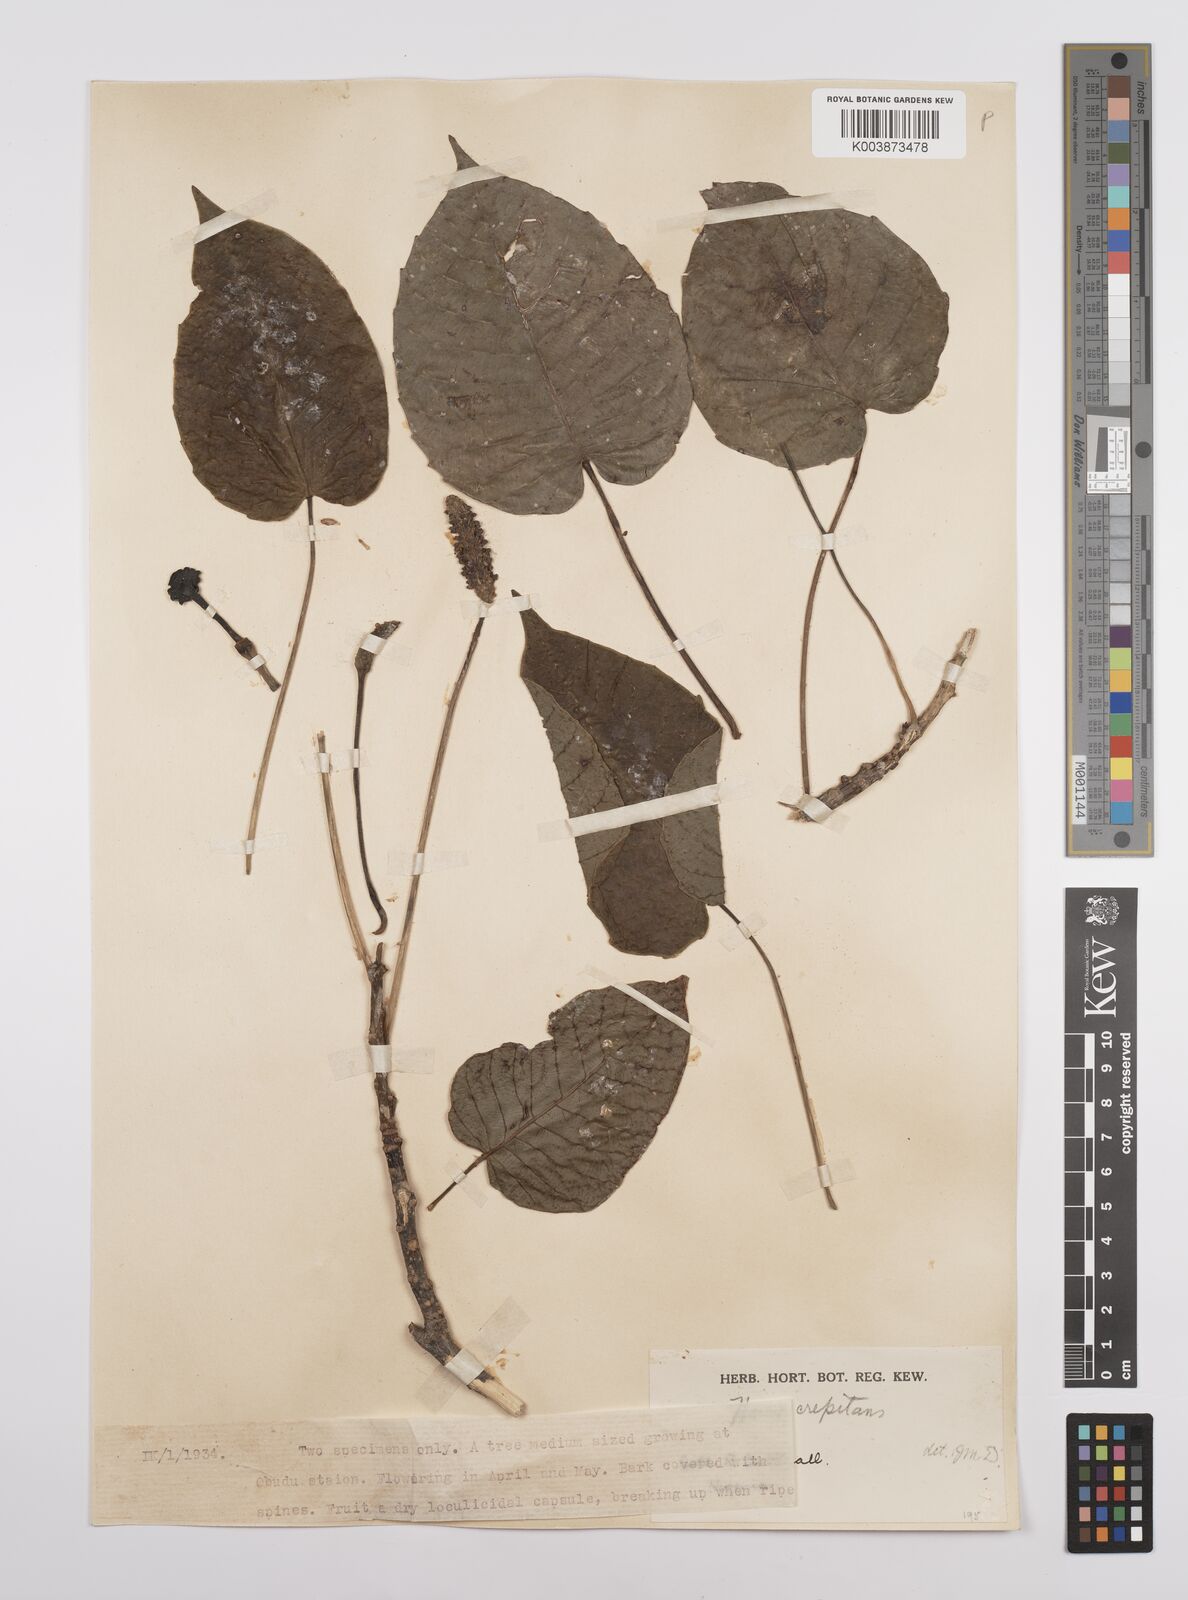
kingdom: Plantae
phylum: Tracheophyta
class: Magnoliopsida
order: Malpighiales
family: Euphorbiaceae
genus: Hura
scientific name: Hura crepitans
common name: Sandboxtree
